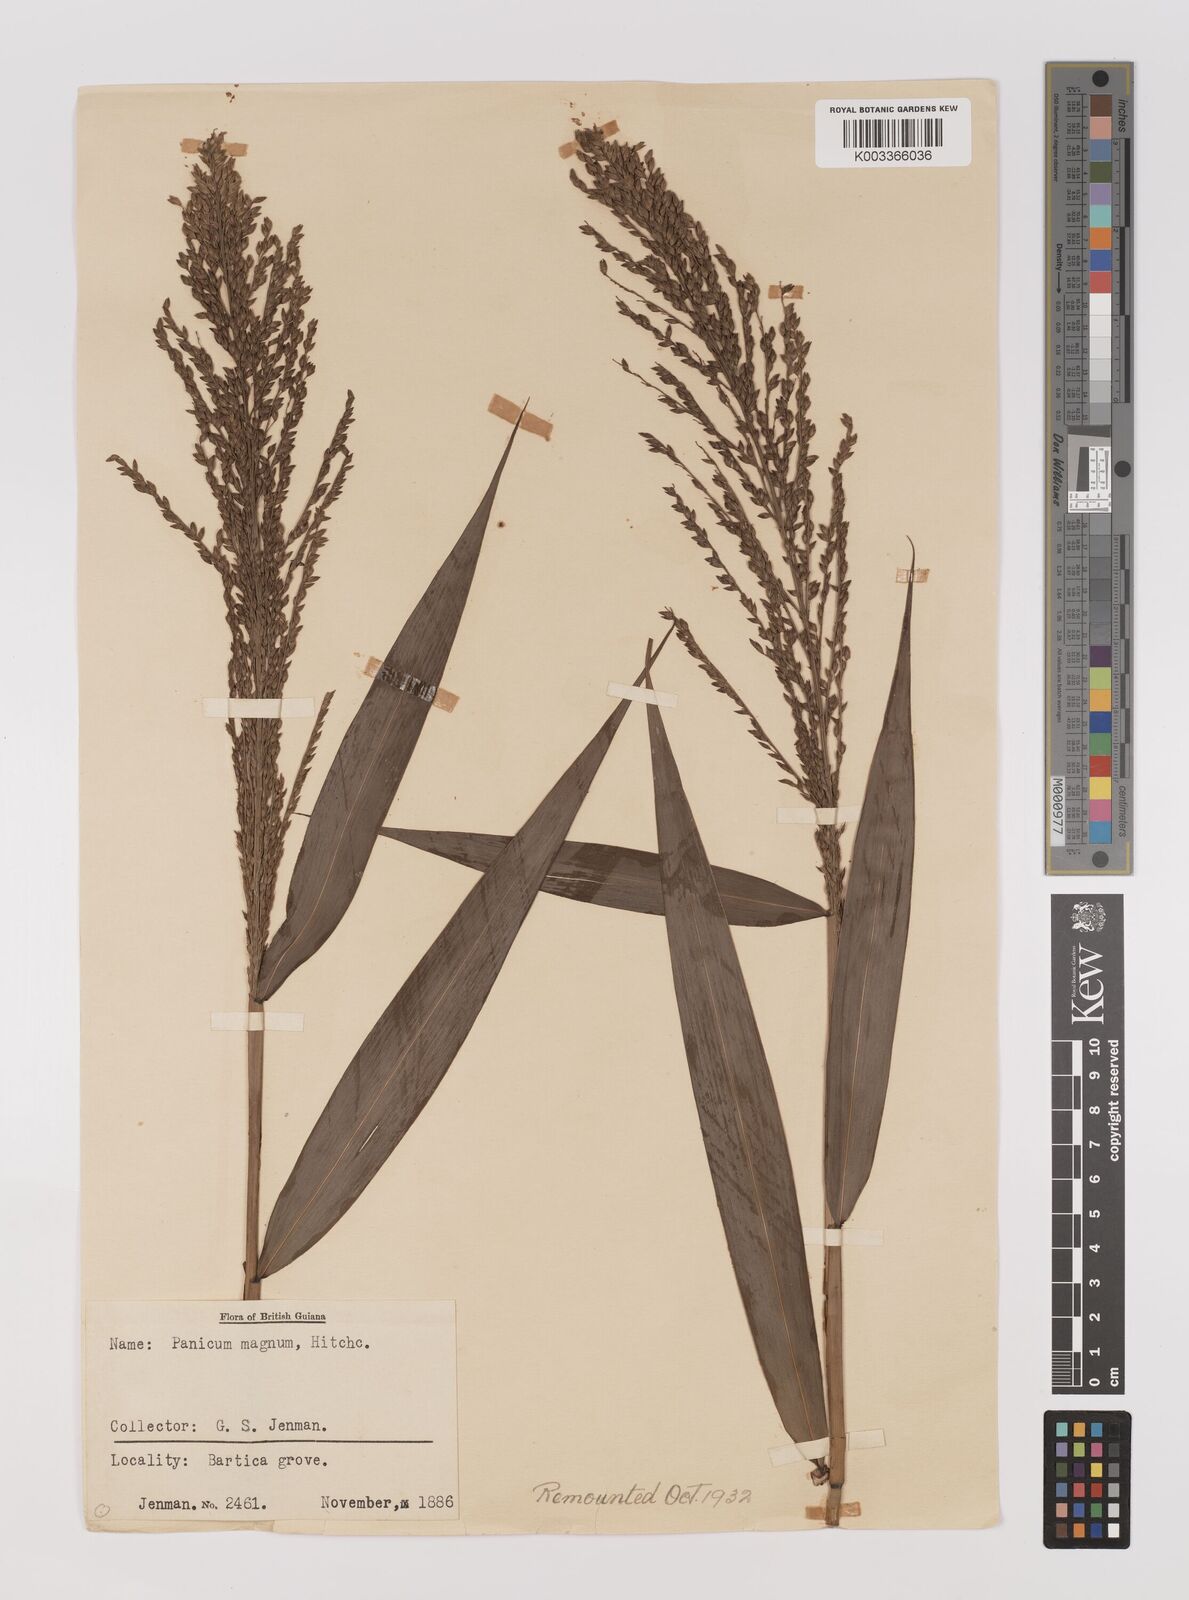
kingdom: Plantae
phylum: Tracheophyta
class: Liliopsida
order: Poales
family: Poaceae
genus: Ichnanthus
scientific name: Ichnanthus breviscrobs
